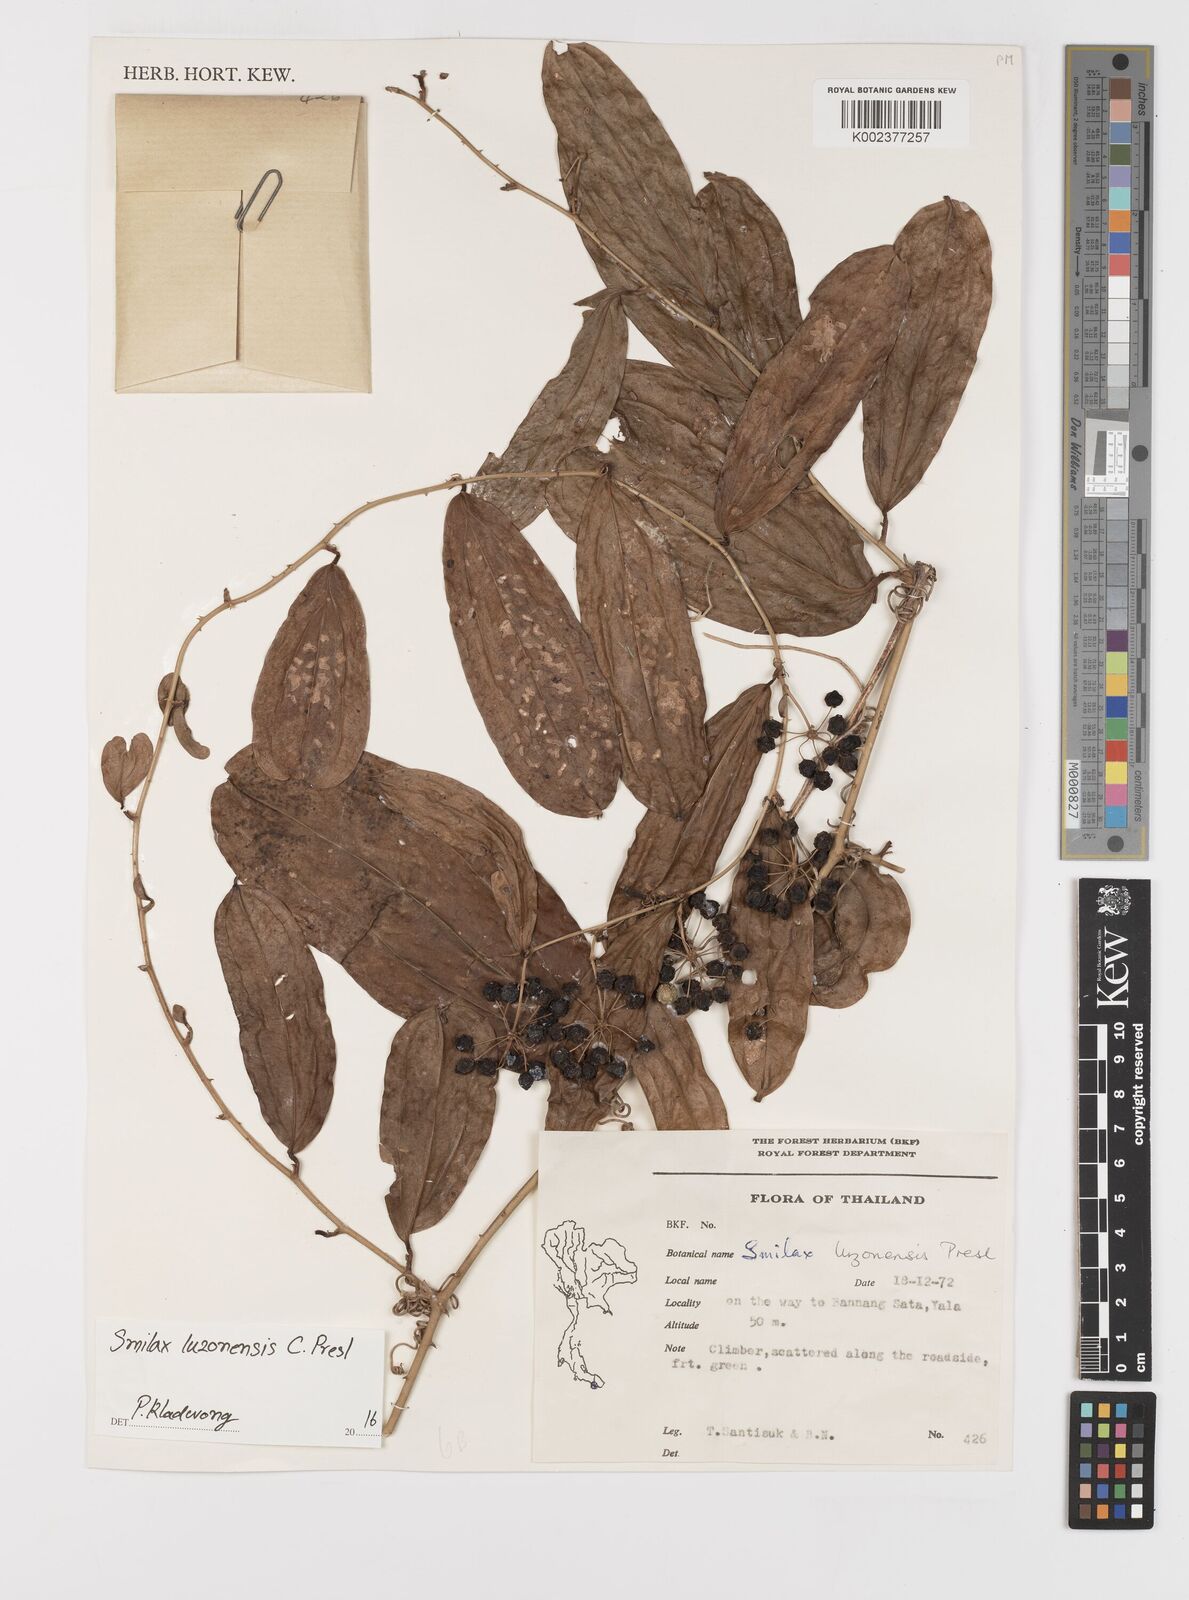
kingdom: Plantae
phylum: Tracheophyta
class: Liliopsida
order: Liliales
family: Smilacaceae
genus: Smilax
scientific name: Smilax luzonensis
